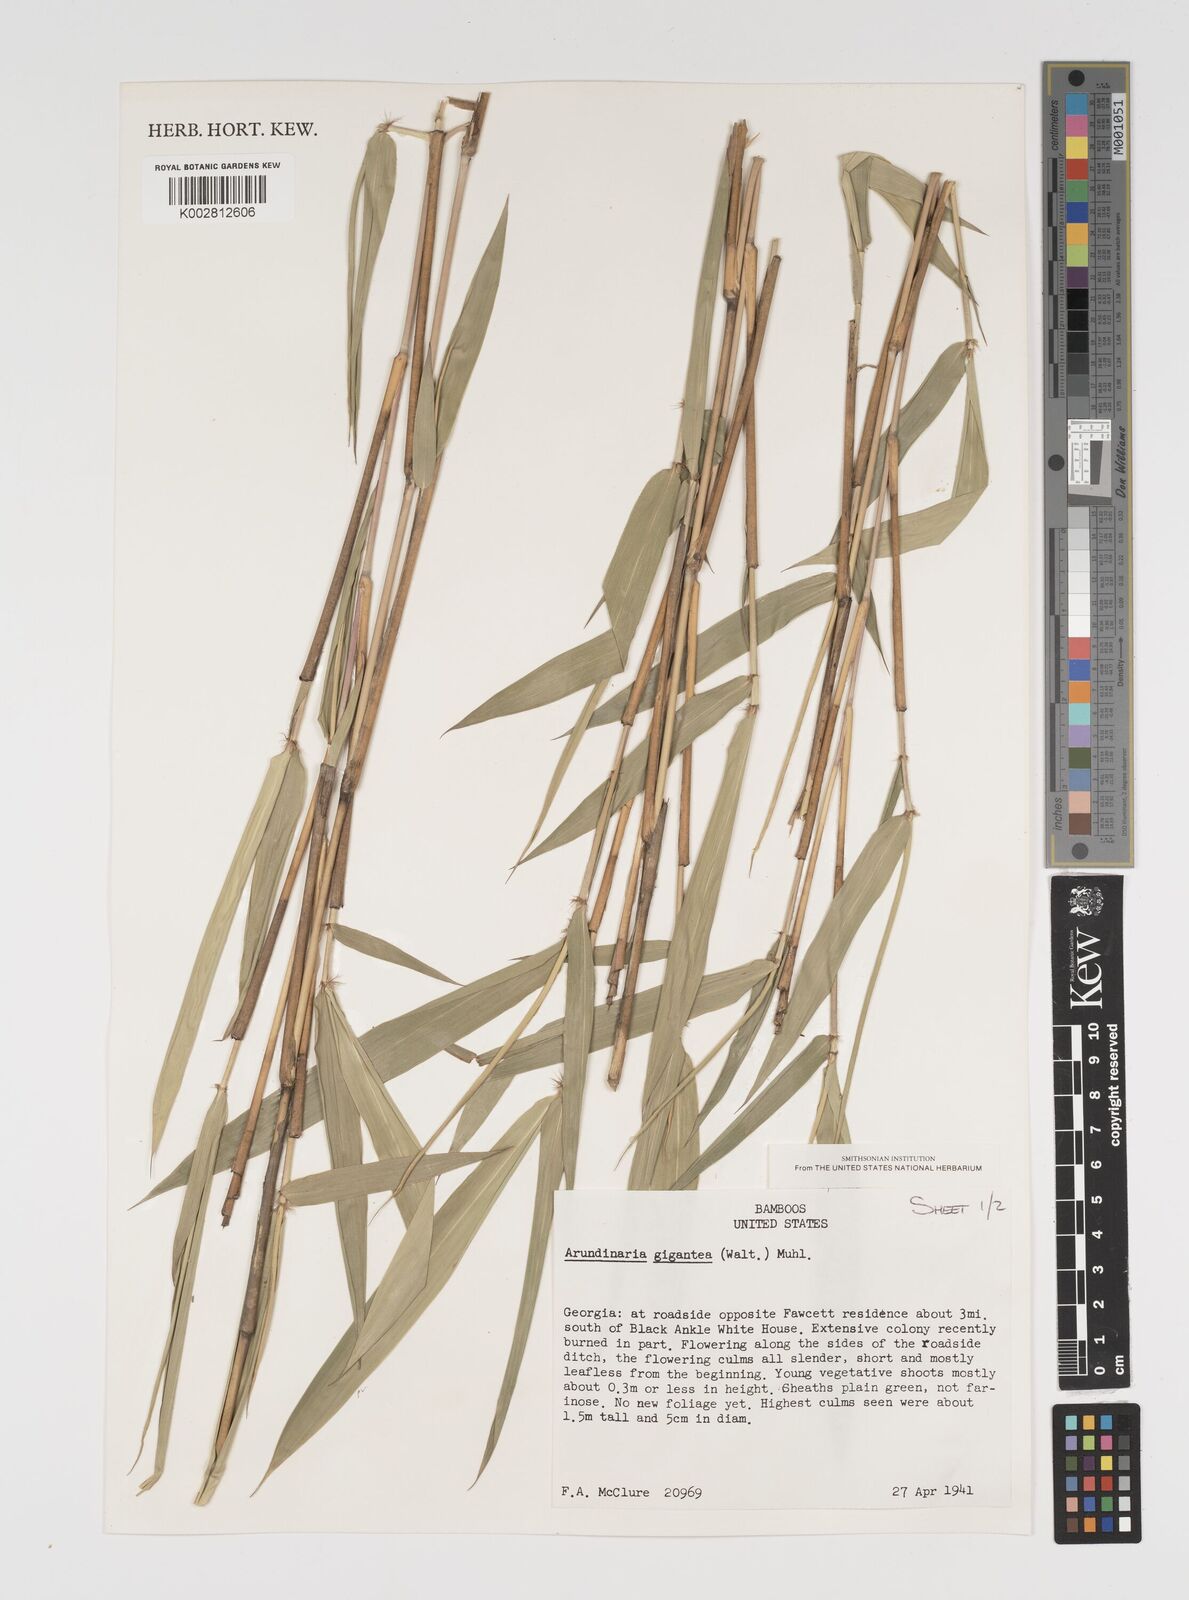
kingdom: Plantae
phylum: Tracheophyta
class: Liliopsida
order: Poales
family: Poaceae
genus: Arundinaria
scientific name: Arundinaria gigantea
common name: Giant cane
